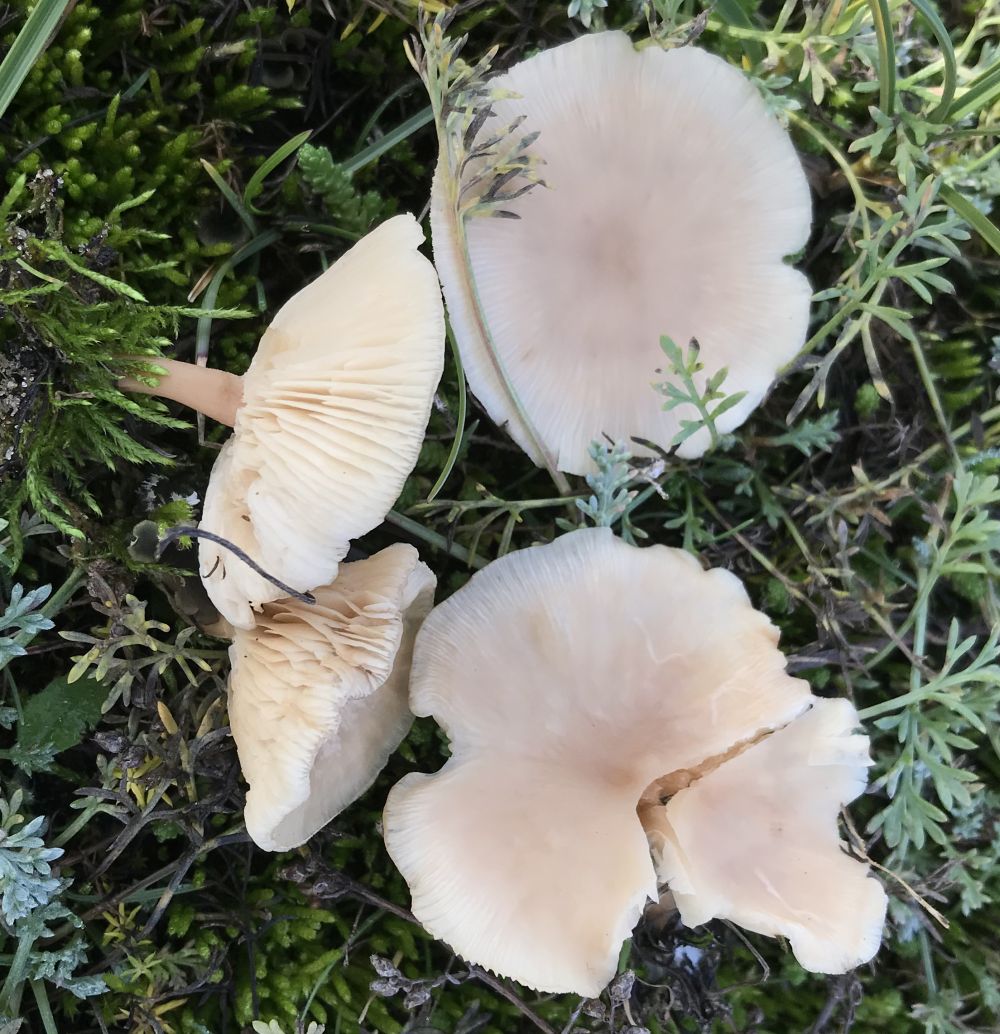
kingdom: Fungi
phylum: Basidiomycota
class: Agaricomycetes
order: Agaricales
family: Tricholomataceae
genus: Clitocybe
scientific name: Clitocybe
